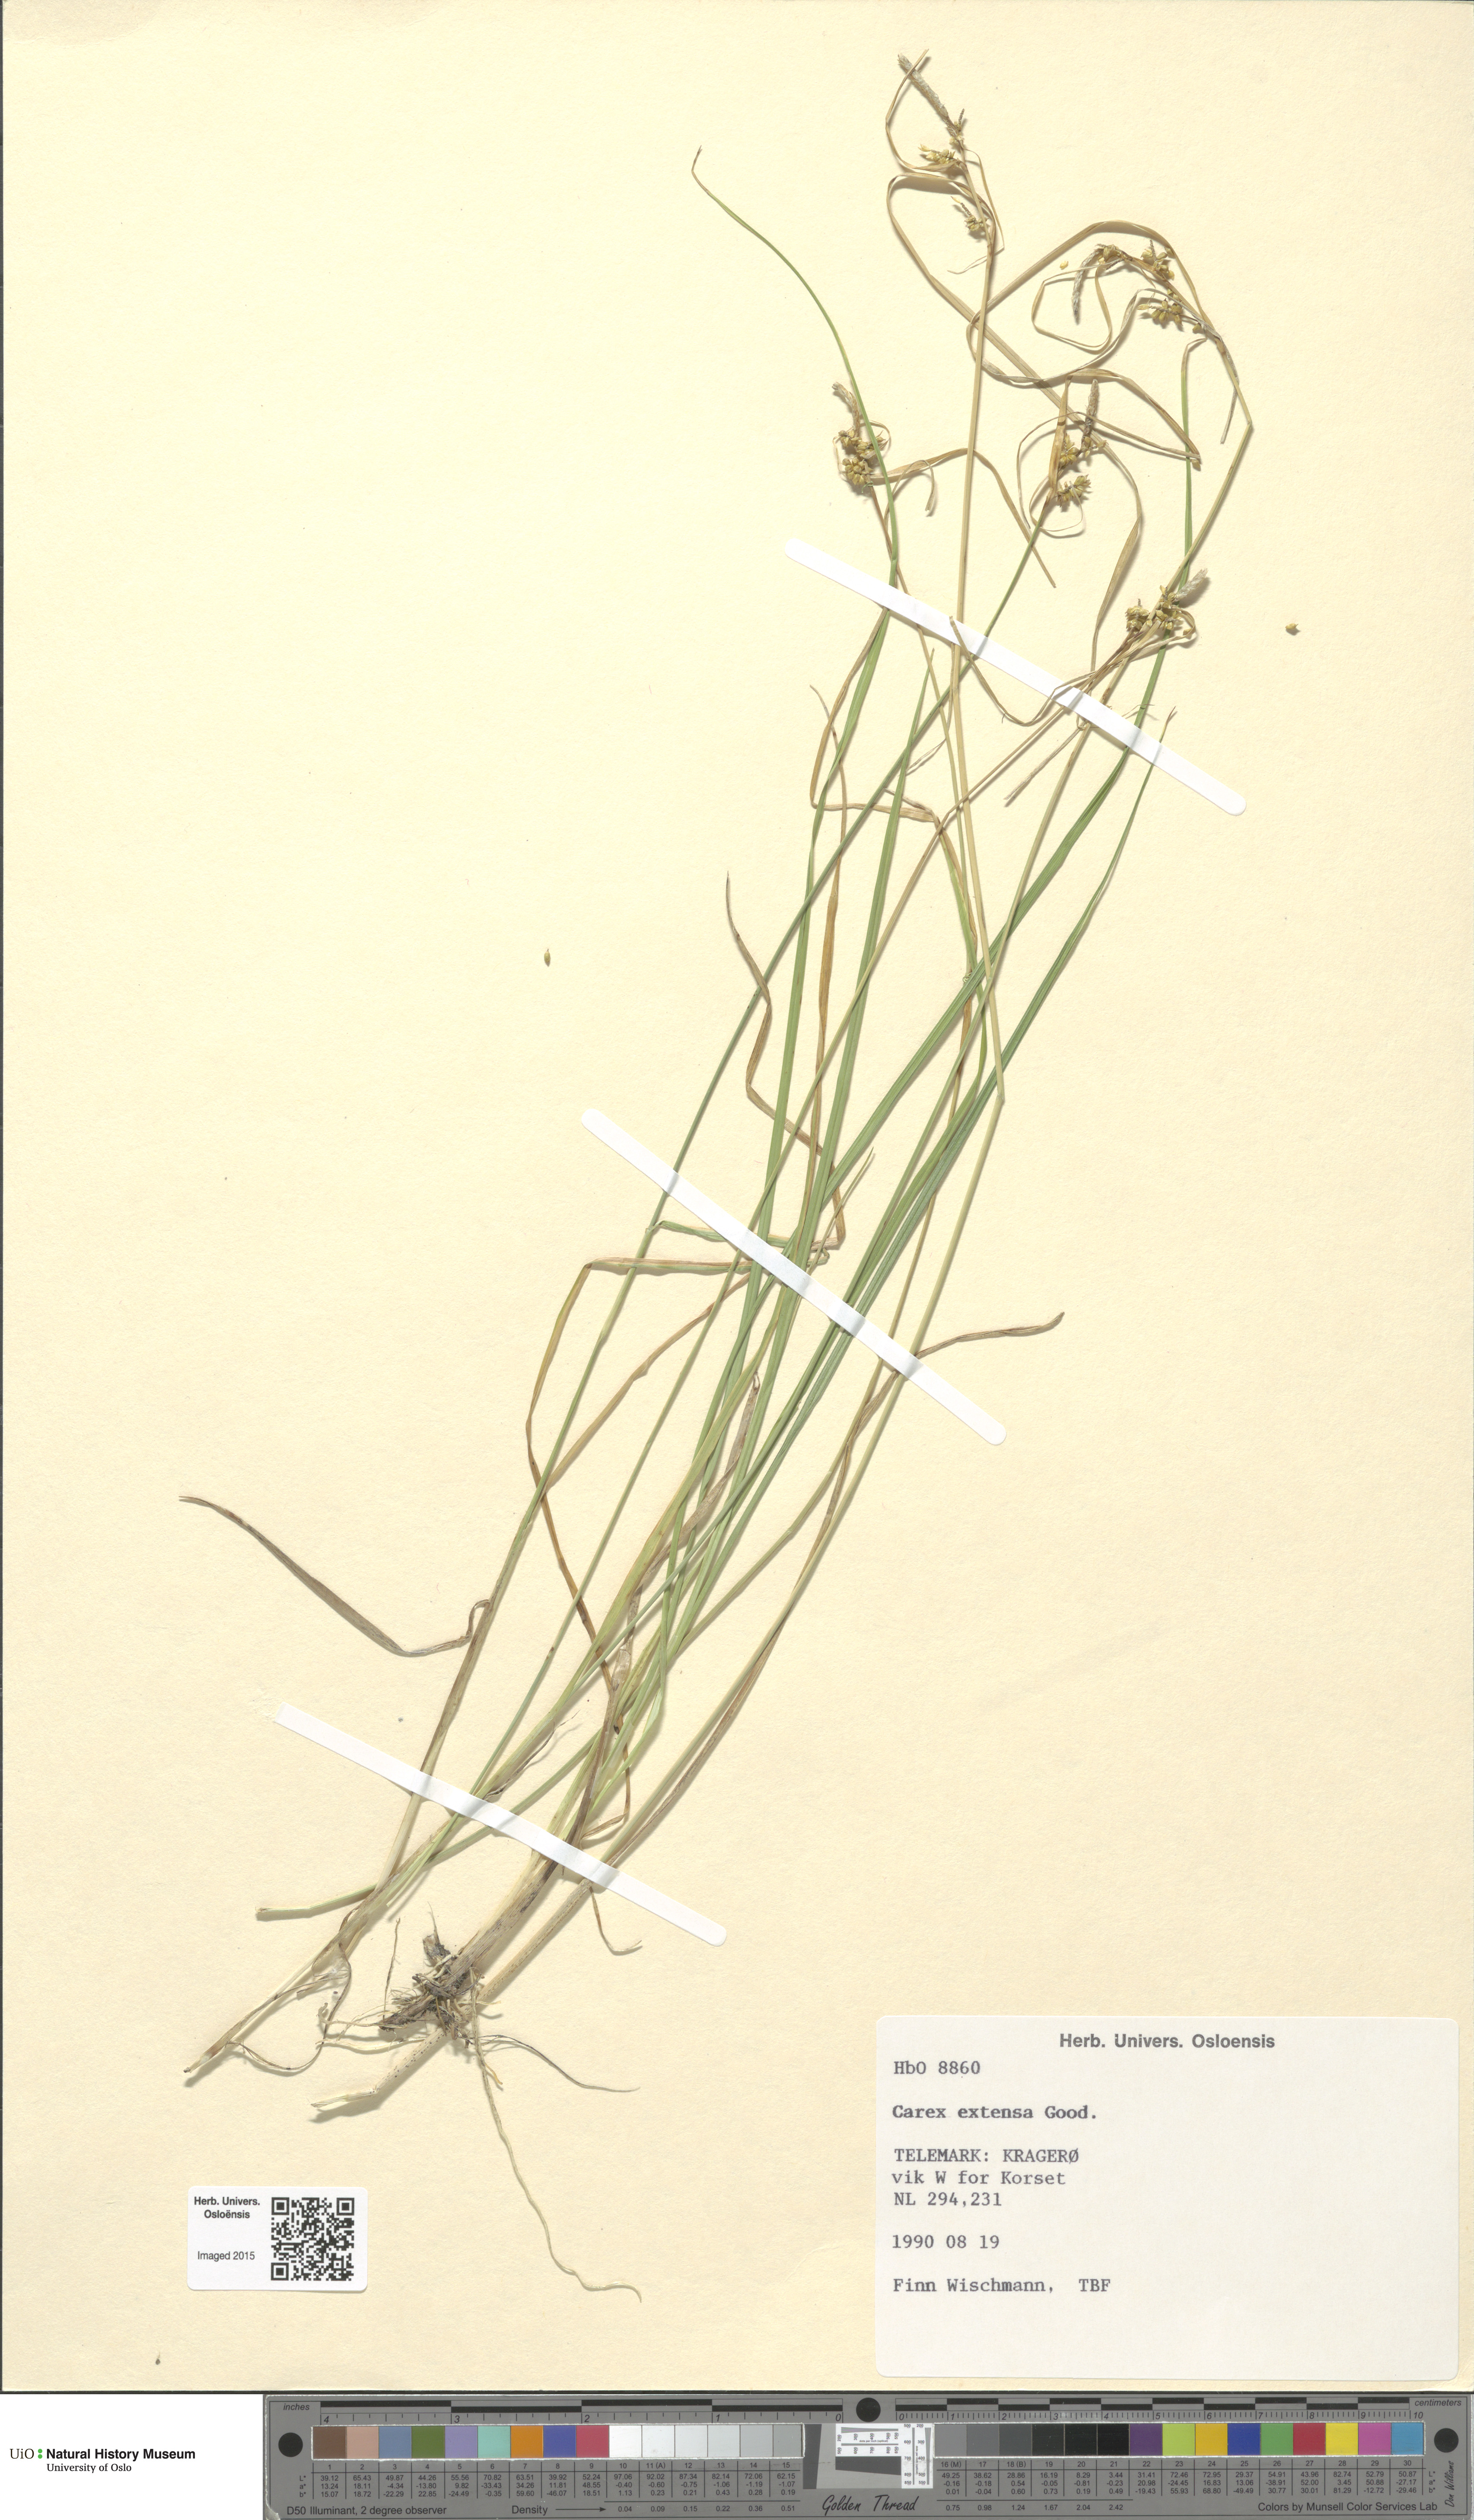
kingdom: Plantae
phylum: Tracheophyta
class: Liliopsida
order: Poales
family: Cyperaceae
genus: Carex
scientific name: Carex extensa
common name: Long-bracted sedge
